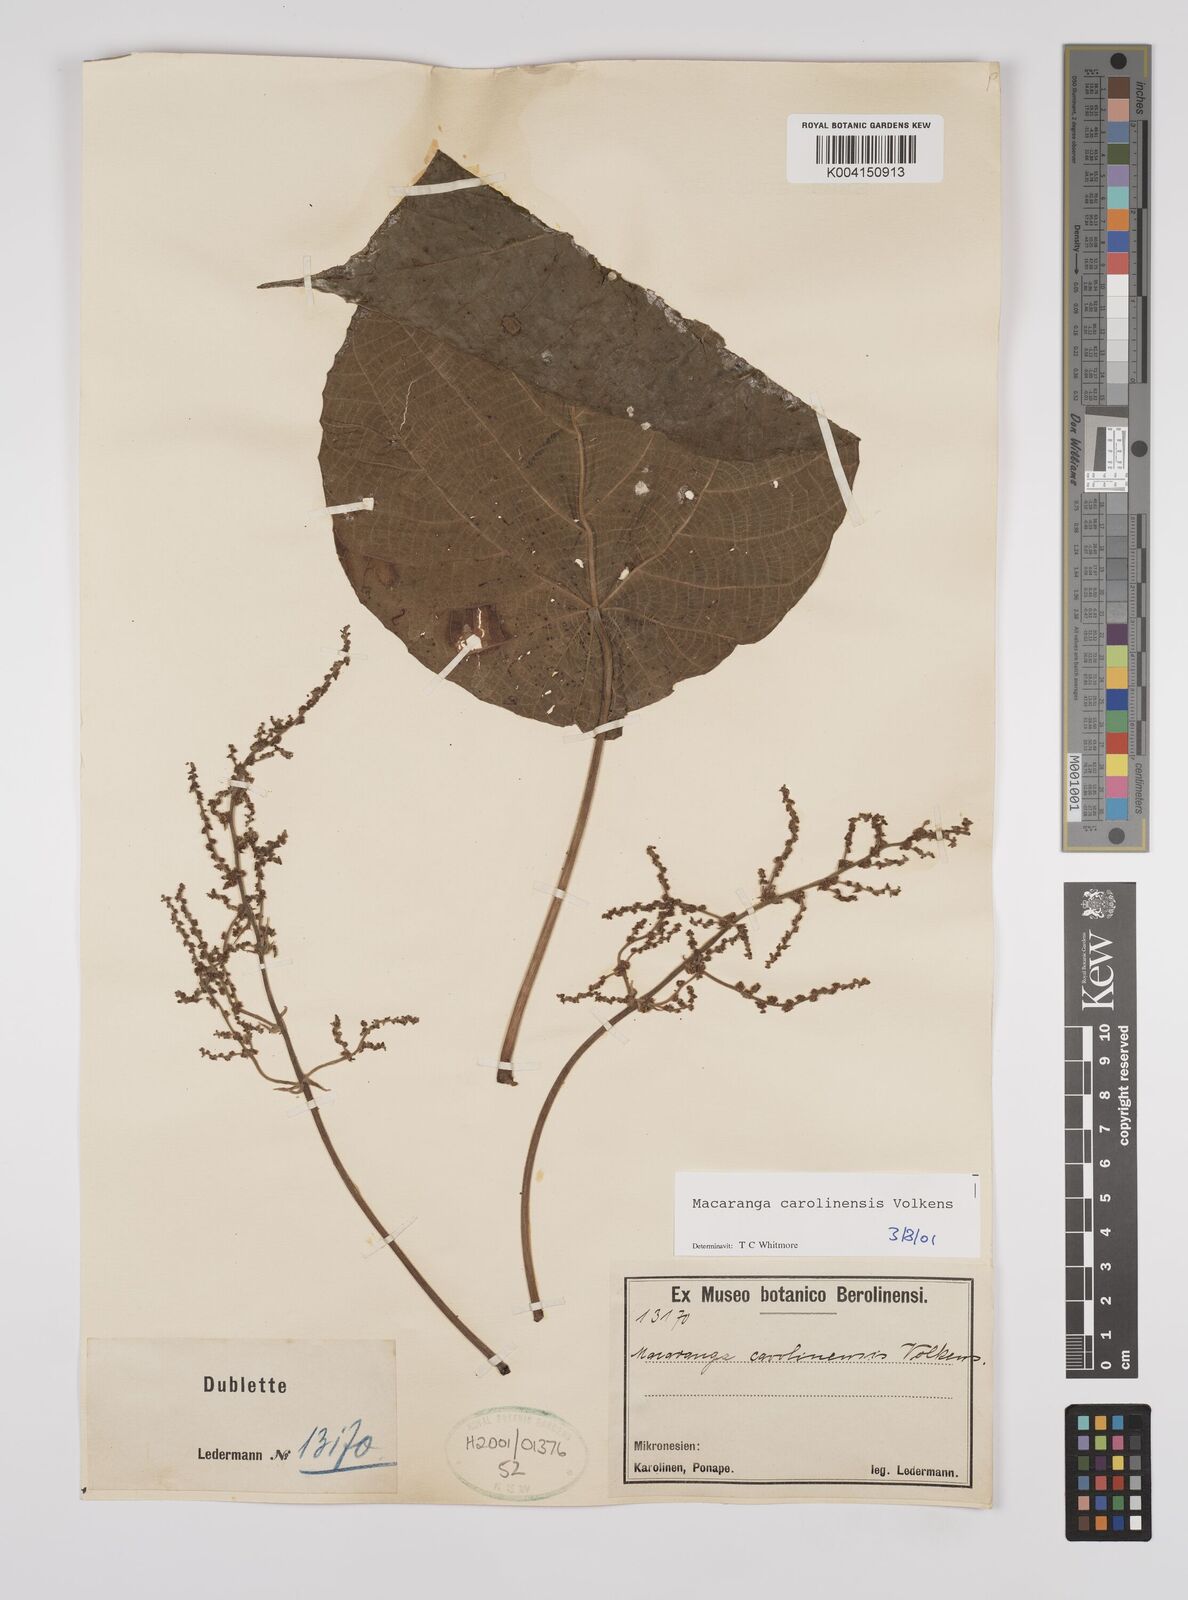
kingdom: Plantae
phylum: Tracheophyta
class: Magnoliopsida
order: Malpighiales
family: Euphorbiaceae
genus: Macaranga
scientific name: Macaranga carolinensis
